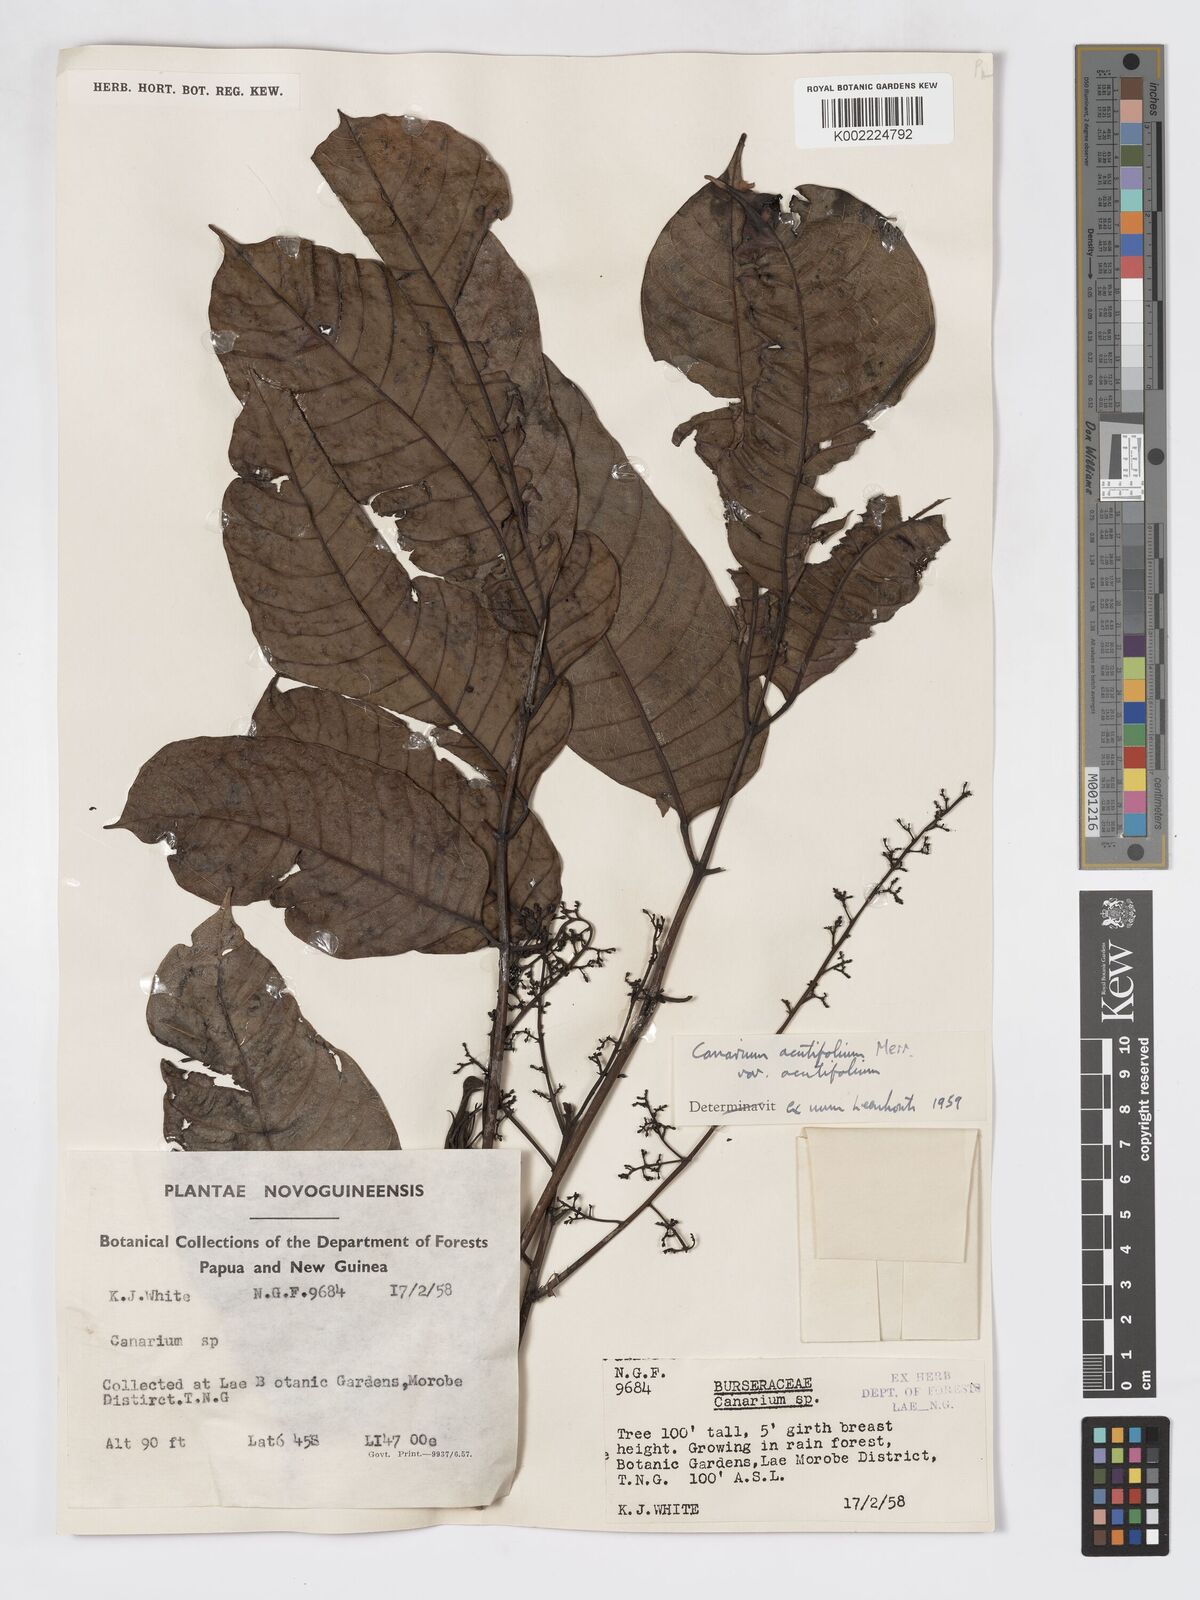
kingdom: Plantae
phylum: Tracheophyta
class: Magnoliopsida
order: Sapindales
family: Burseraceae
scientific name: Burseraceae
